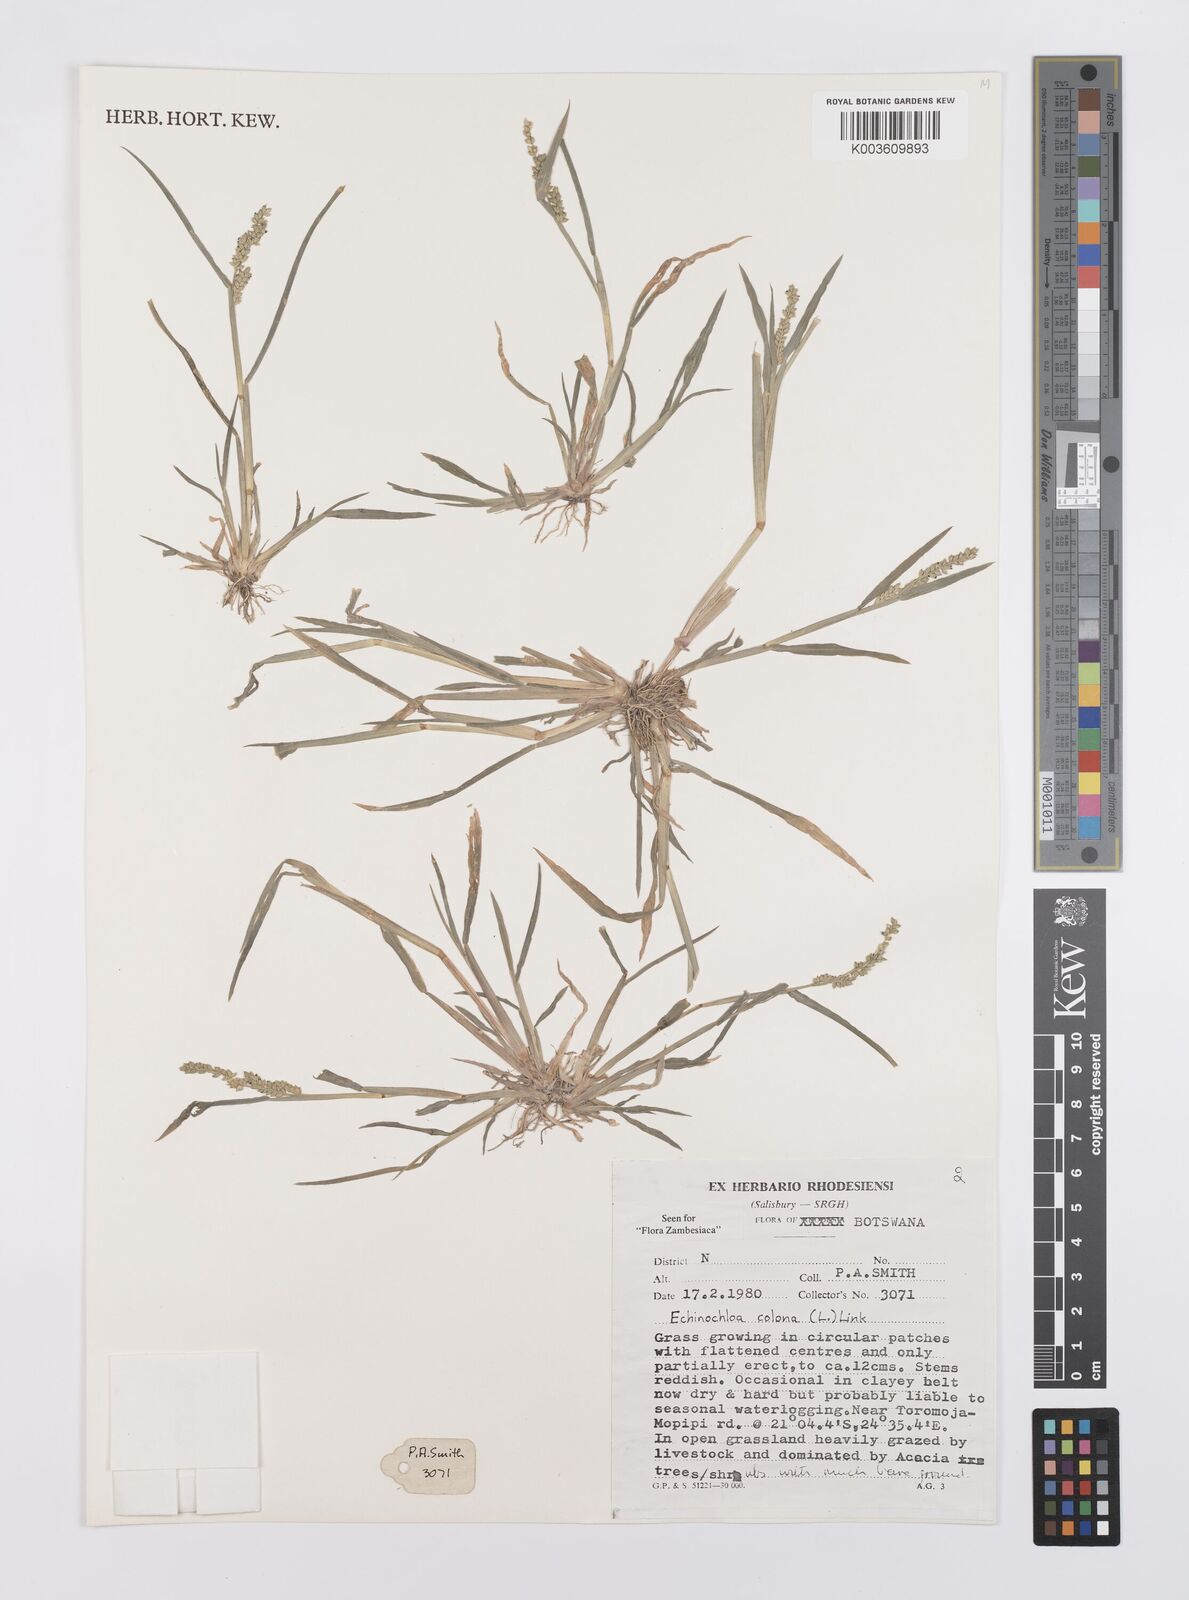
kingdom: Plantae
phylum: Tracheophyta
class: Liliopsida
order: Poales
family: Poaceae
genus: Echinochloa
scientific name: Echinochloa colonum
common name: Jungle rice
